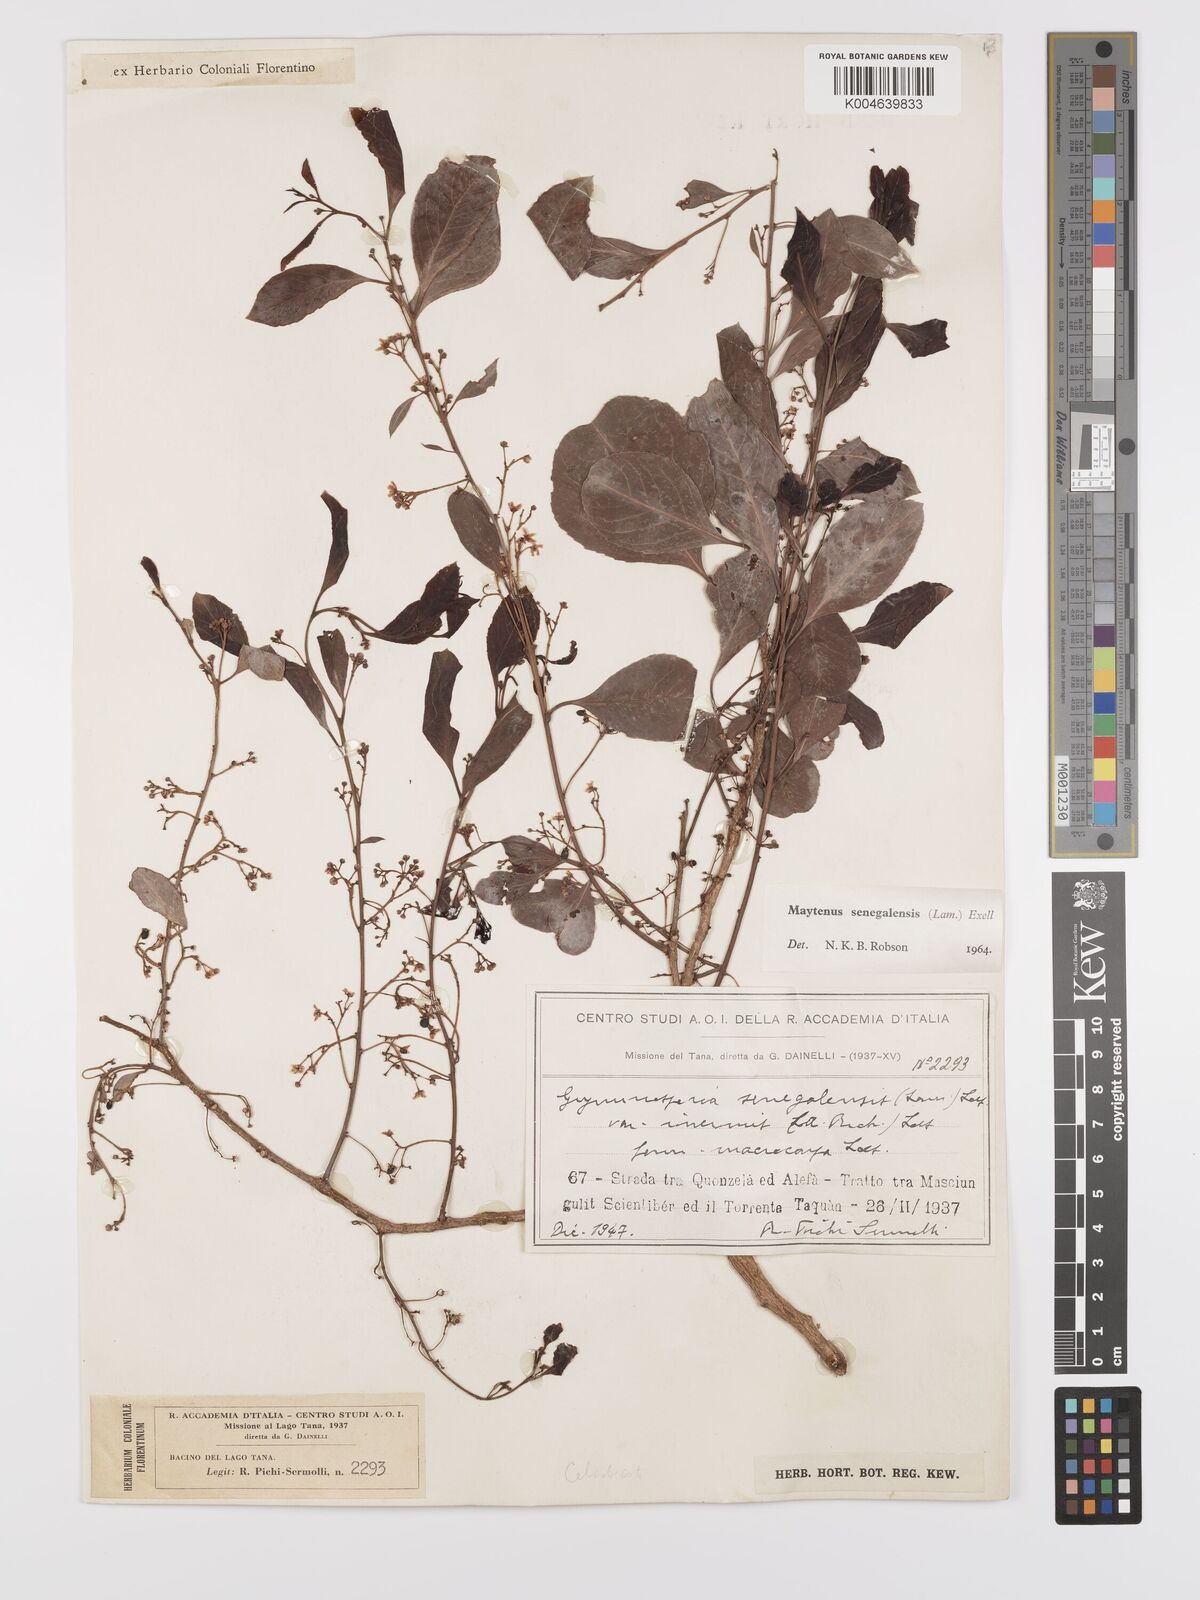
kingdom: Plantae
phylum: Tracheophyta
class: Magnoliopsida
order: Celastrales
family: Celastraceae
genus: Gymnosporia
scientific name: Gymnosporia senegalensis
